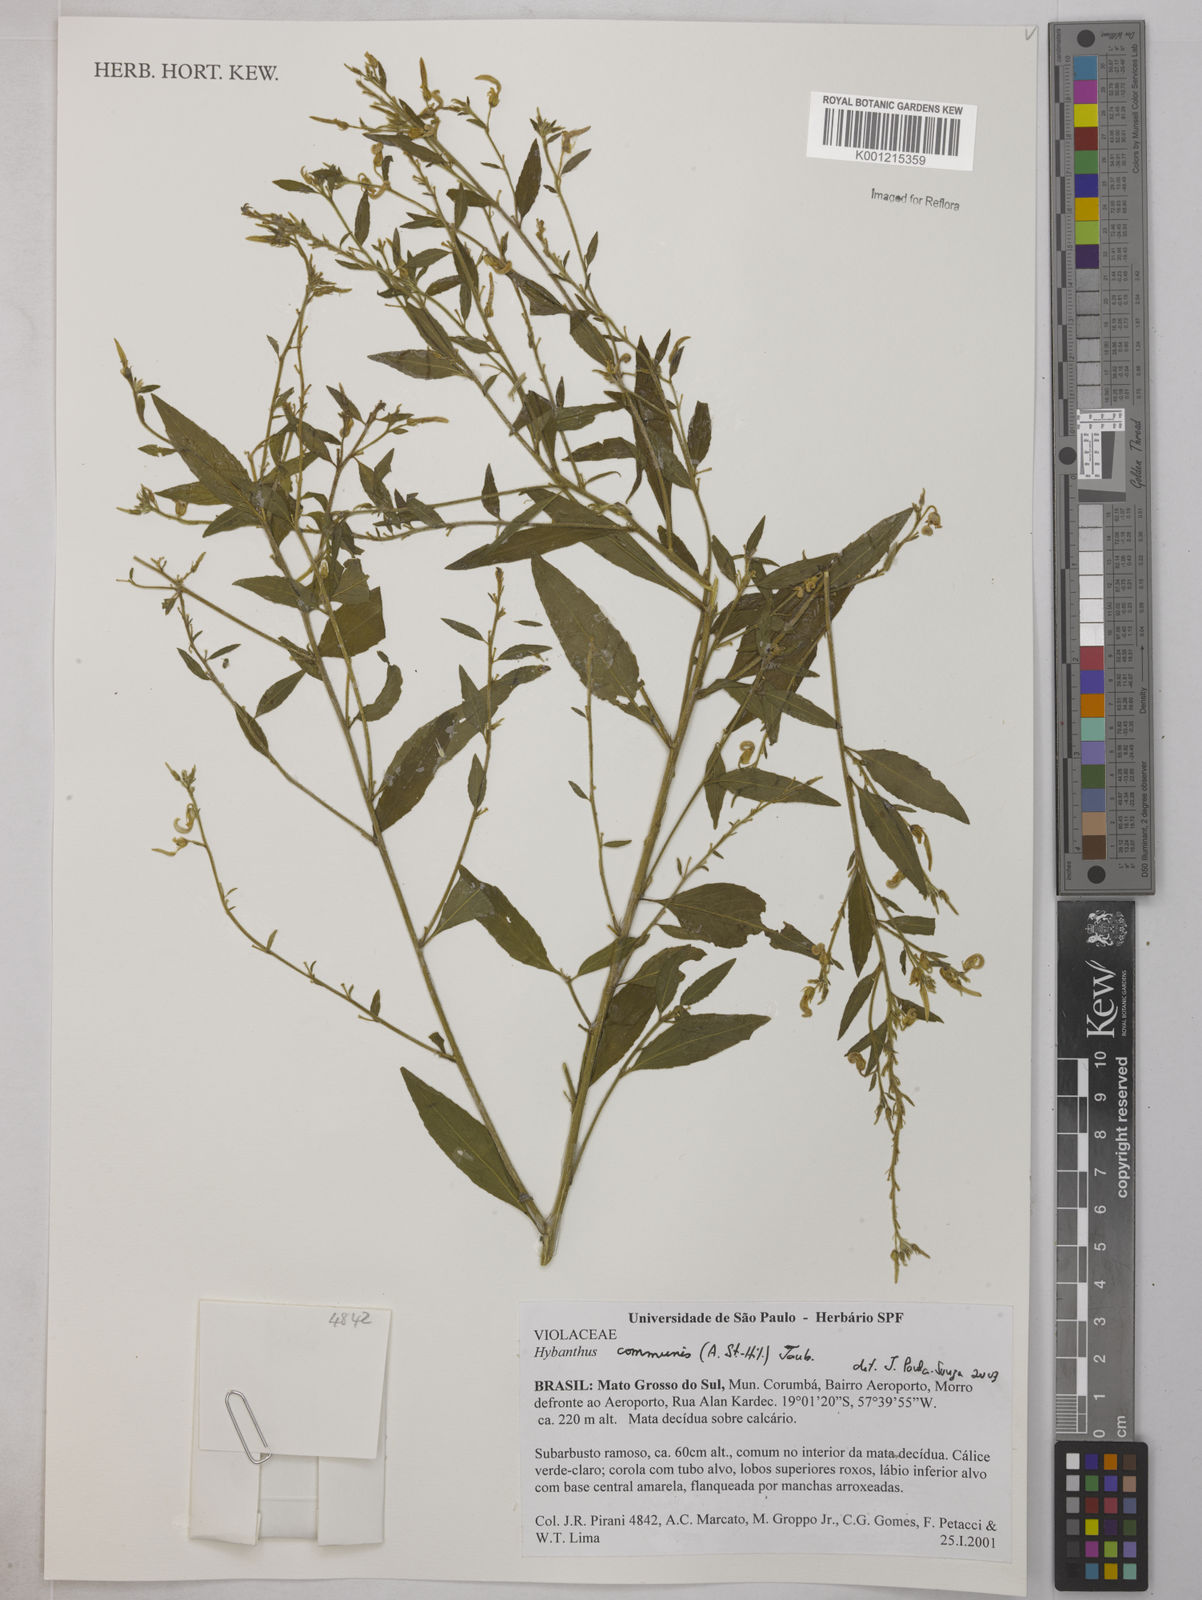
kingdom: Plantae
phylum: Tracheophyta
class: Magnoliopsida
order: Malpighiales
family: Violaceae
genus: Pombalia
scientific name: Pombalia communis
